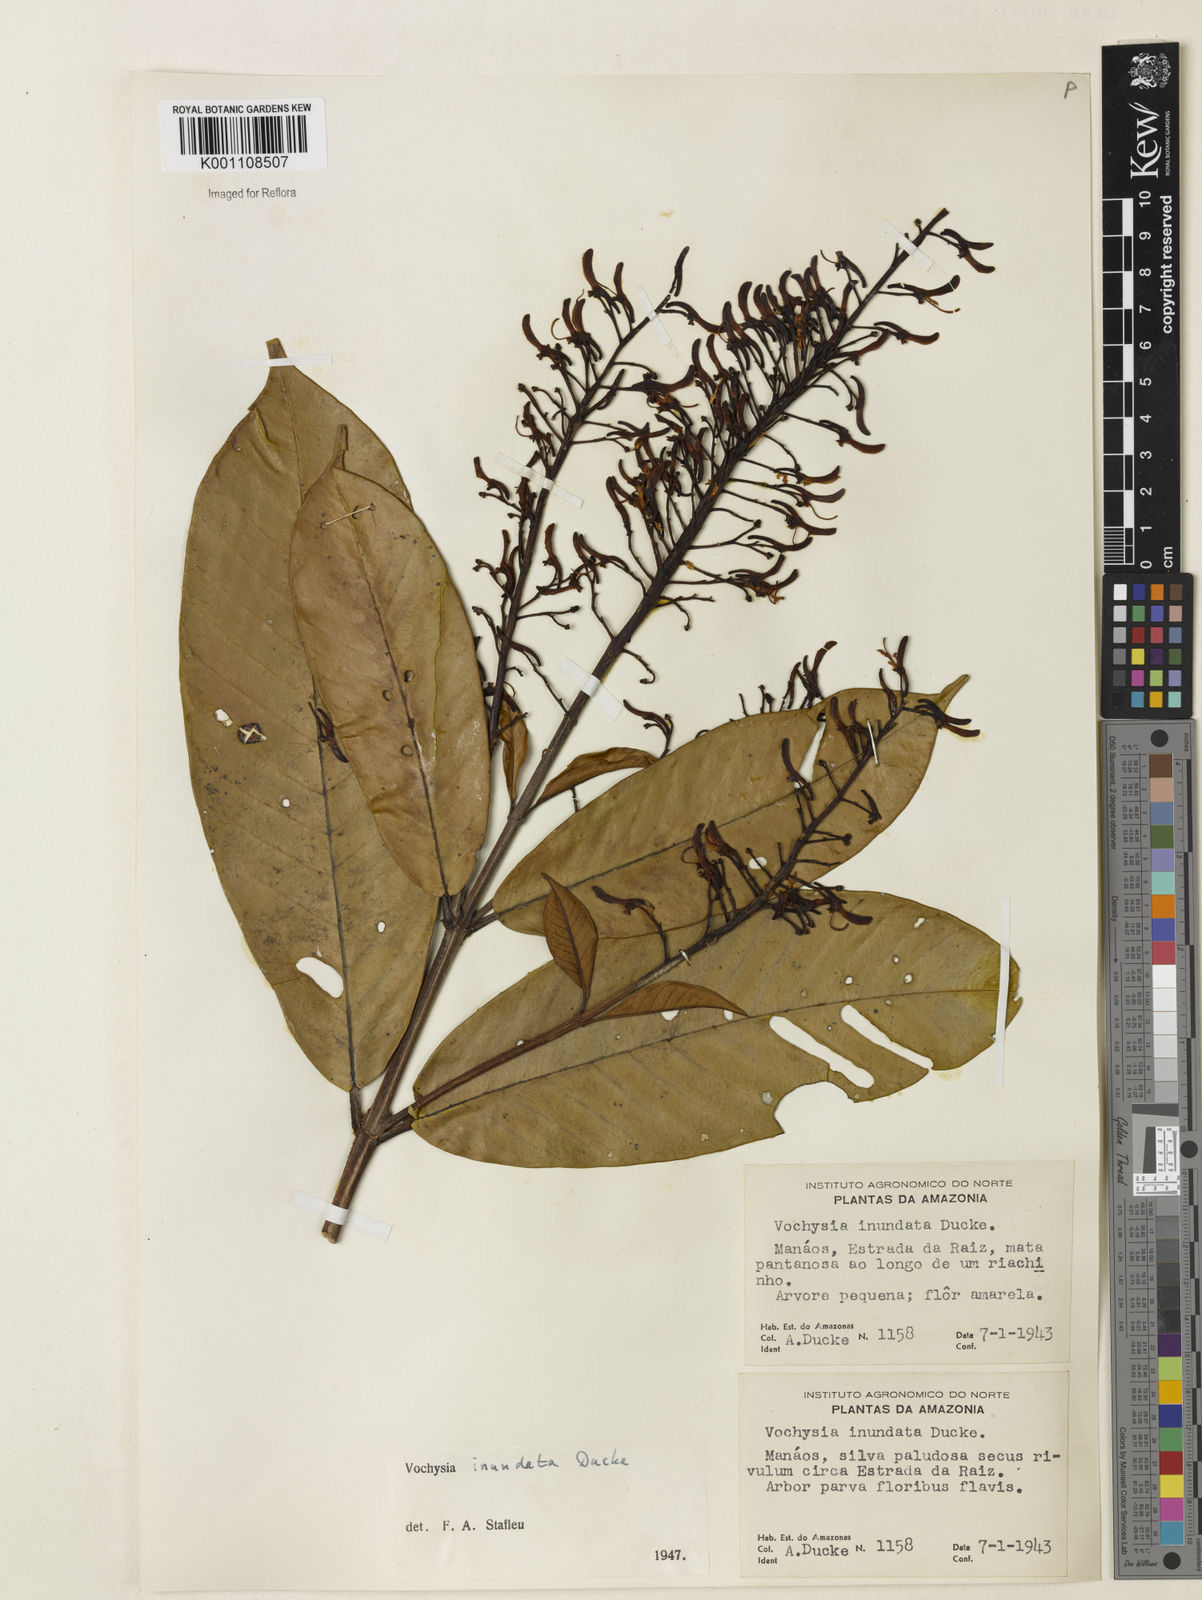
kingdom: Plantae
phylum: Tracheophyta
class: Magnoliopsida
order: Myrtales
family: Vochysiaceae
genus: Vochysia
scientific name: Vochysia inundata
